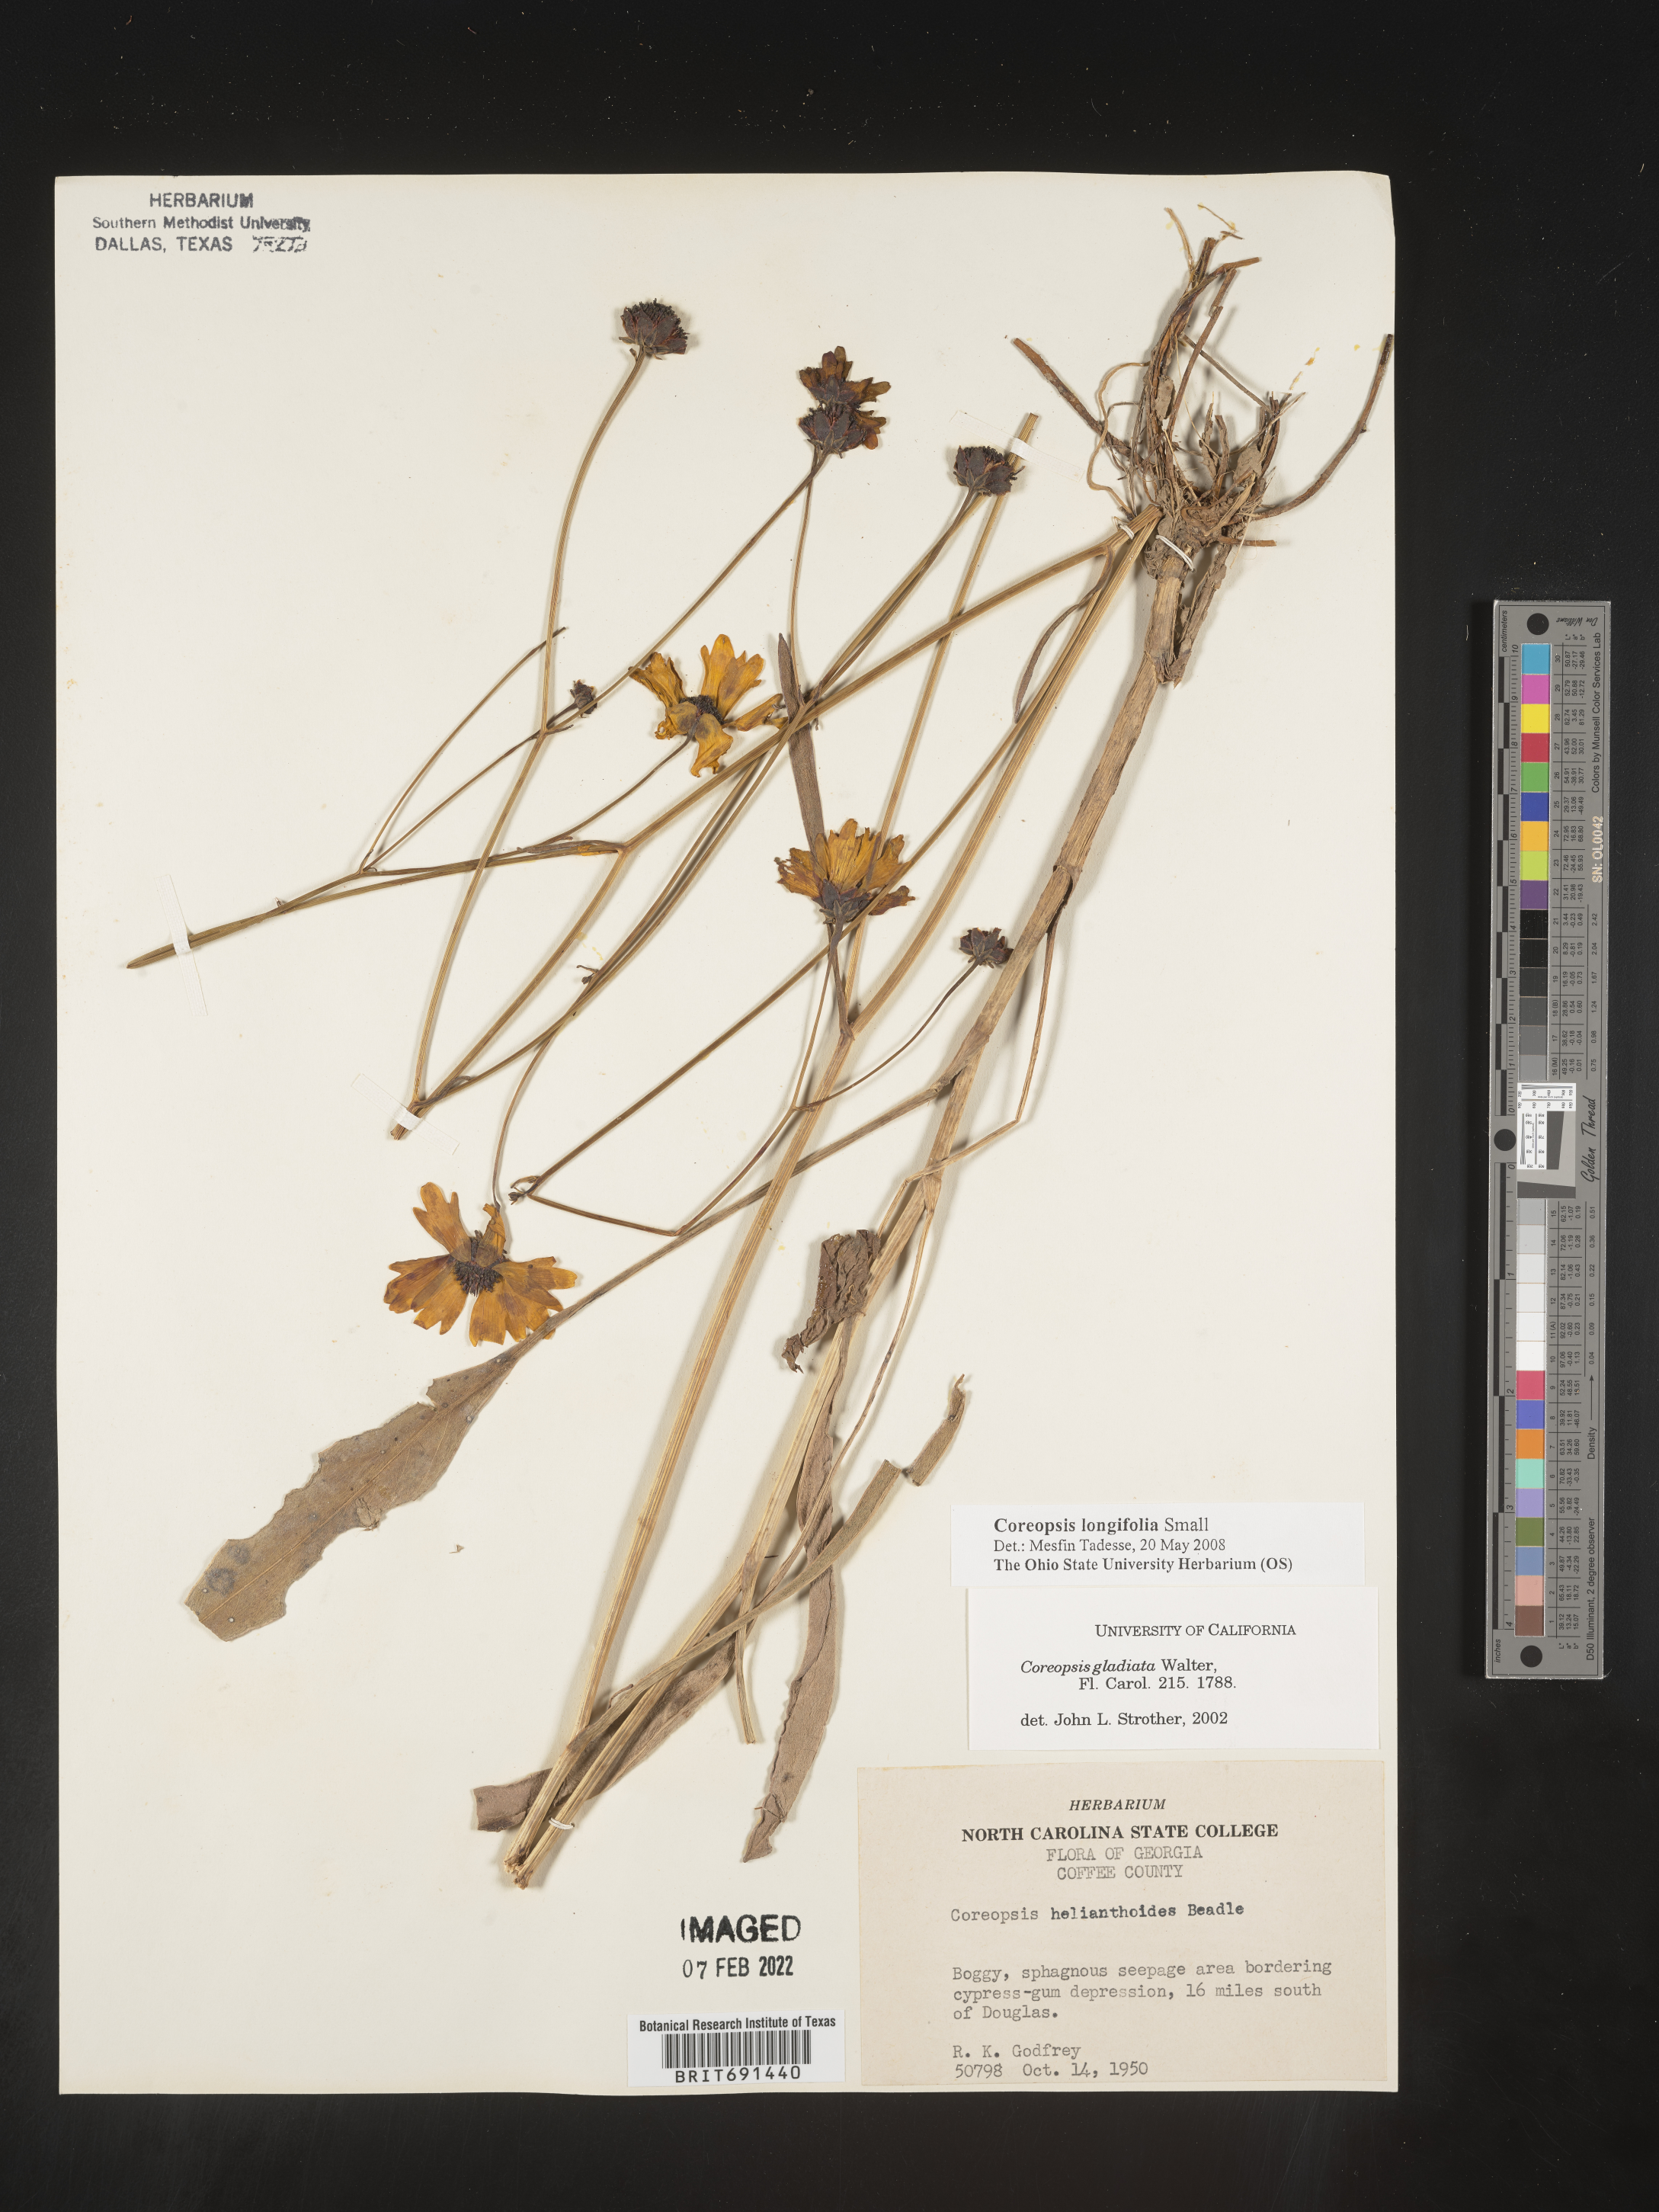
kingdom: Plantae
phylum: Tracheophyta
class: Magnoliopsida
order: Asterales
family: Asteraceae
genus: Coreopsis
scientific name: Coreopsis gladiata
